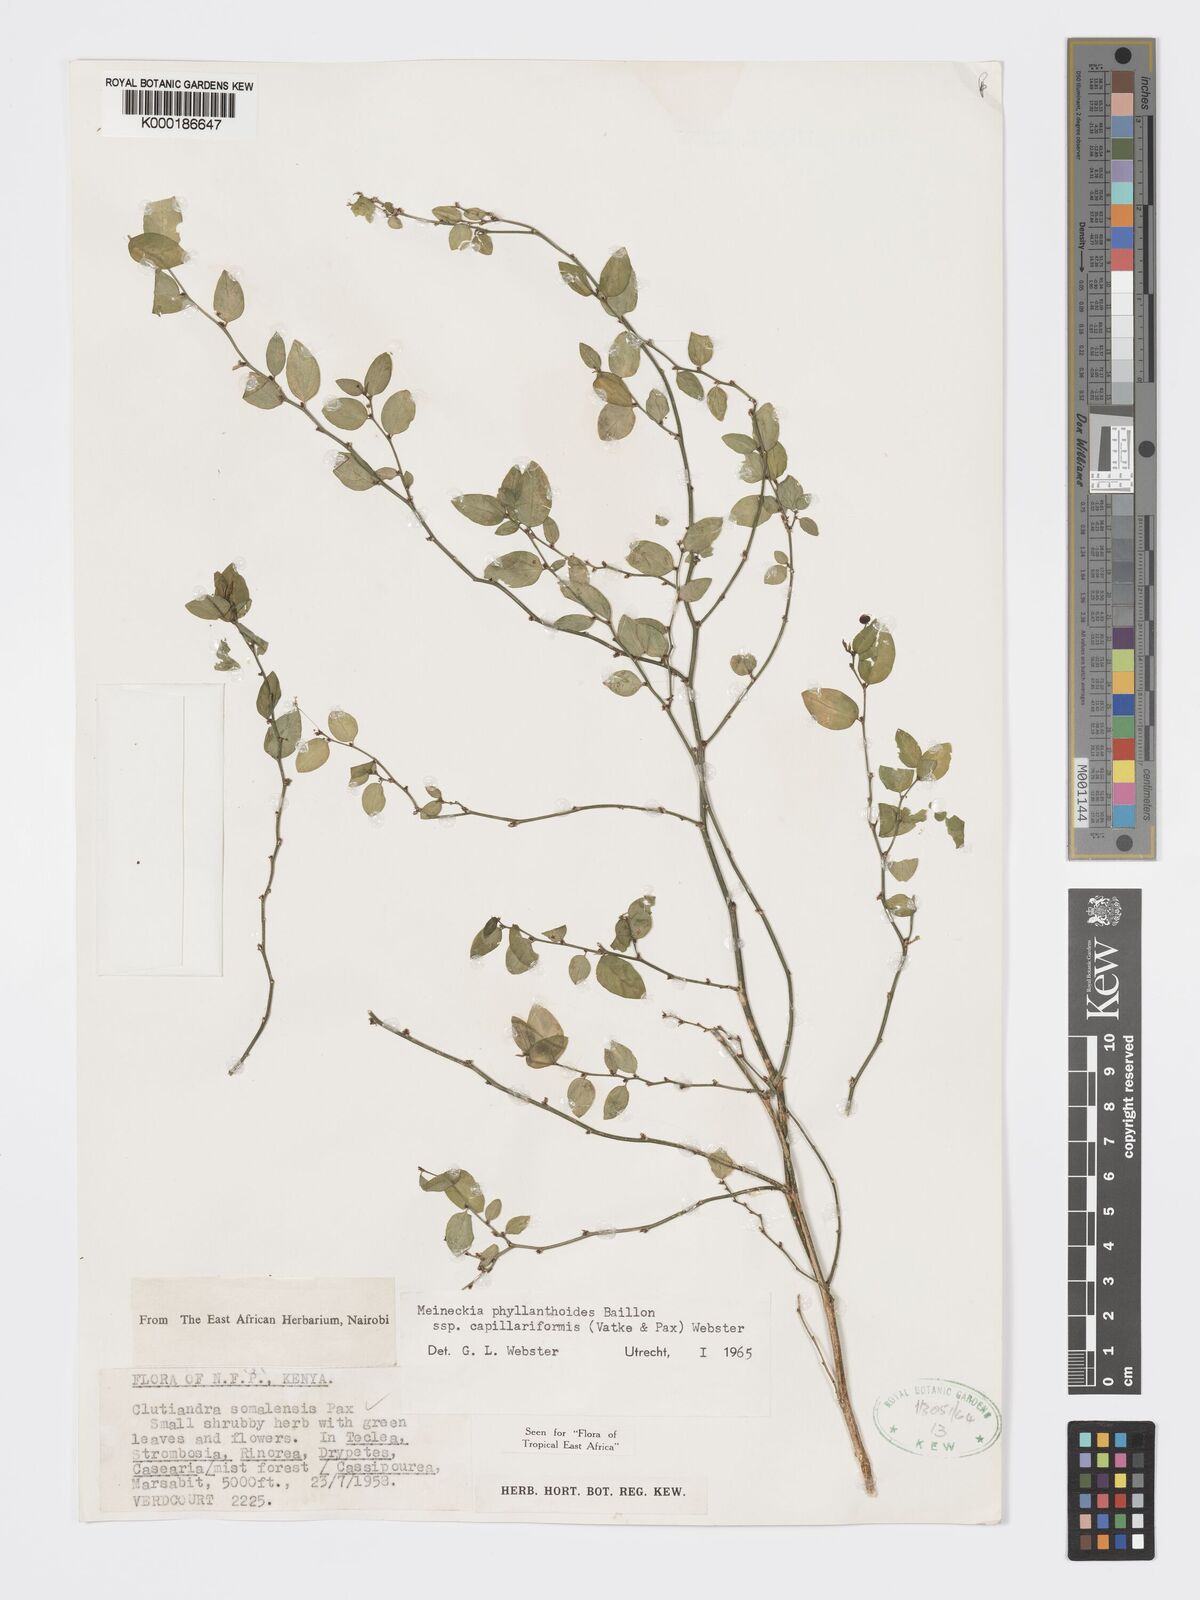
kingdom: Plantae
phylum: Tracheophyta
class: Magnoliopsida
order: Malpighiales
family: Phyllanthaceae
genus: Meineckia
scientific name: Meineckia phyllanthoides
